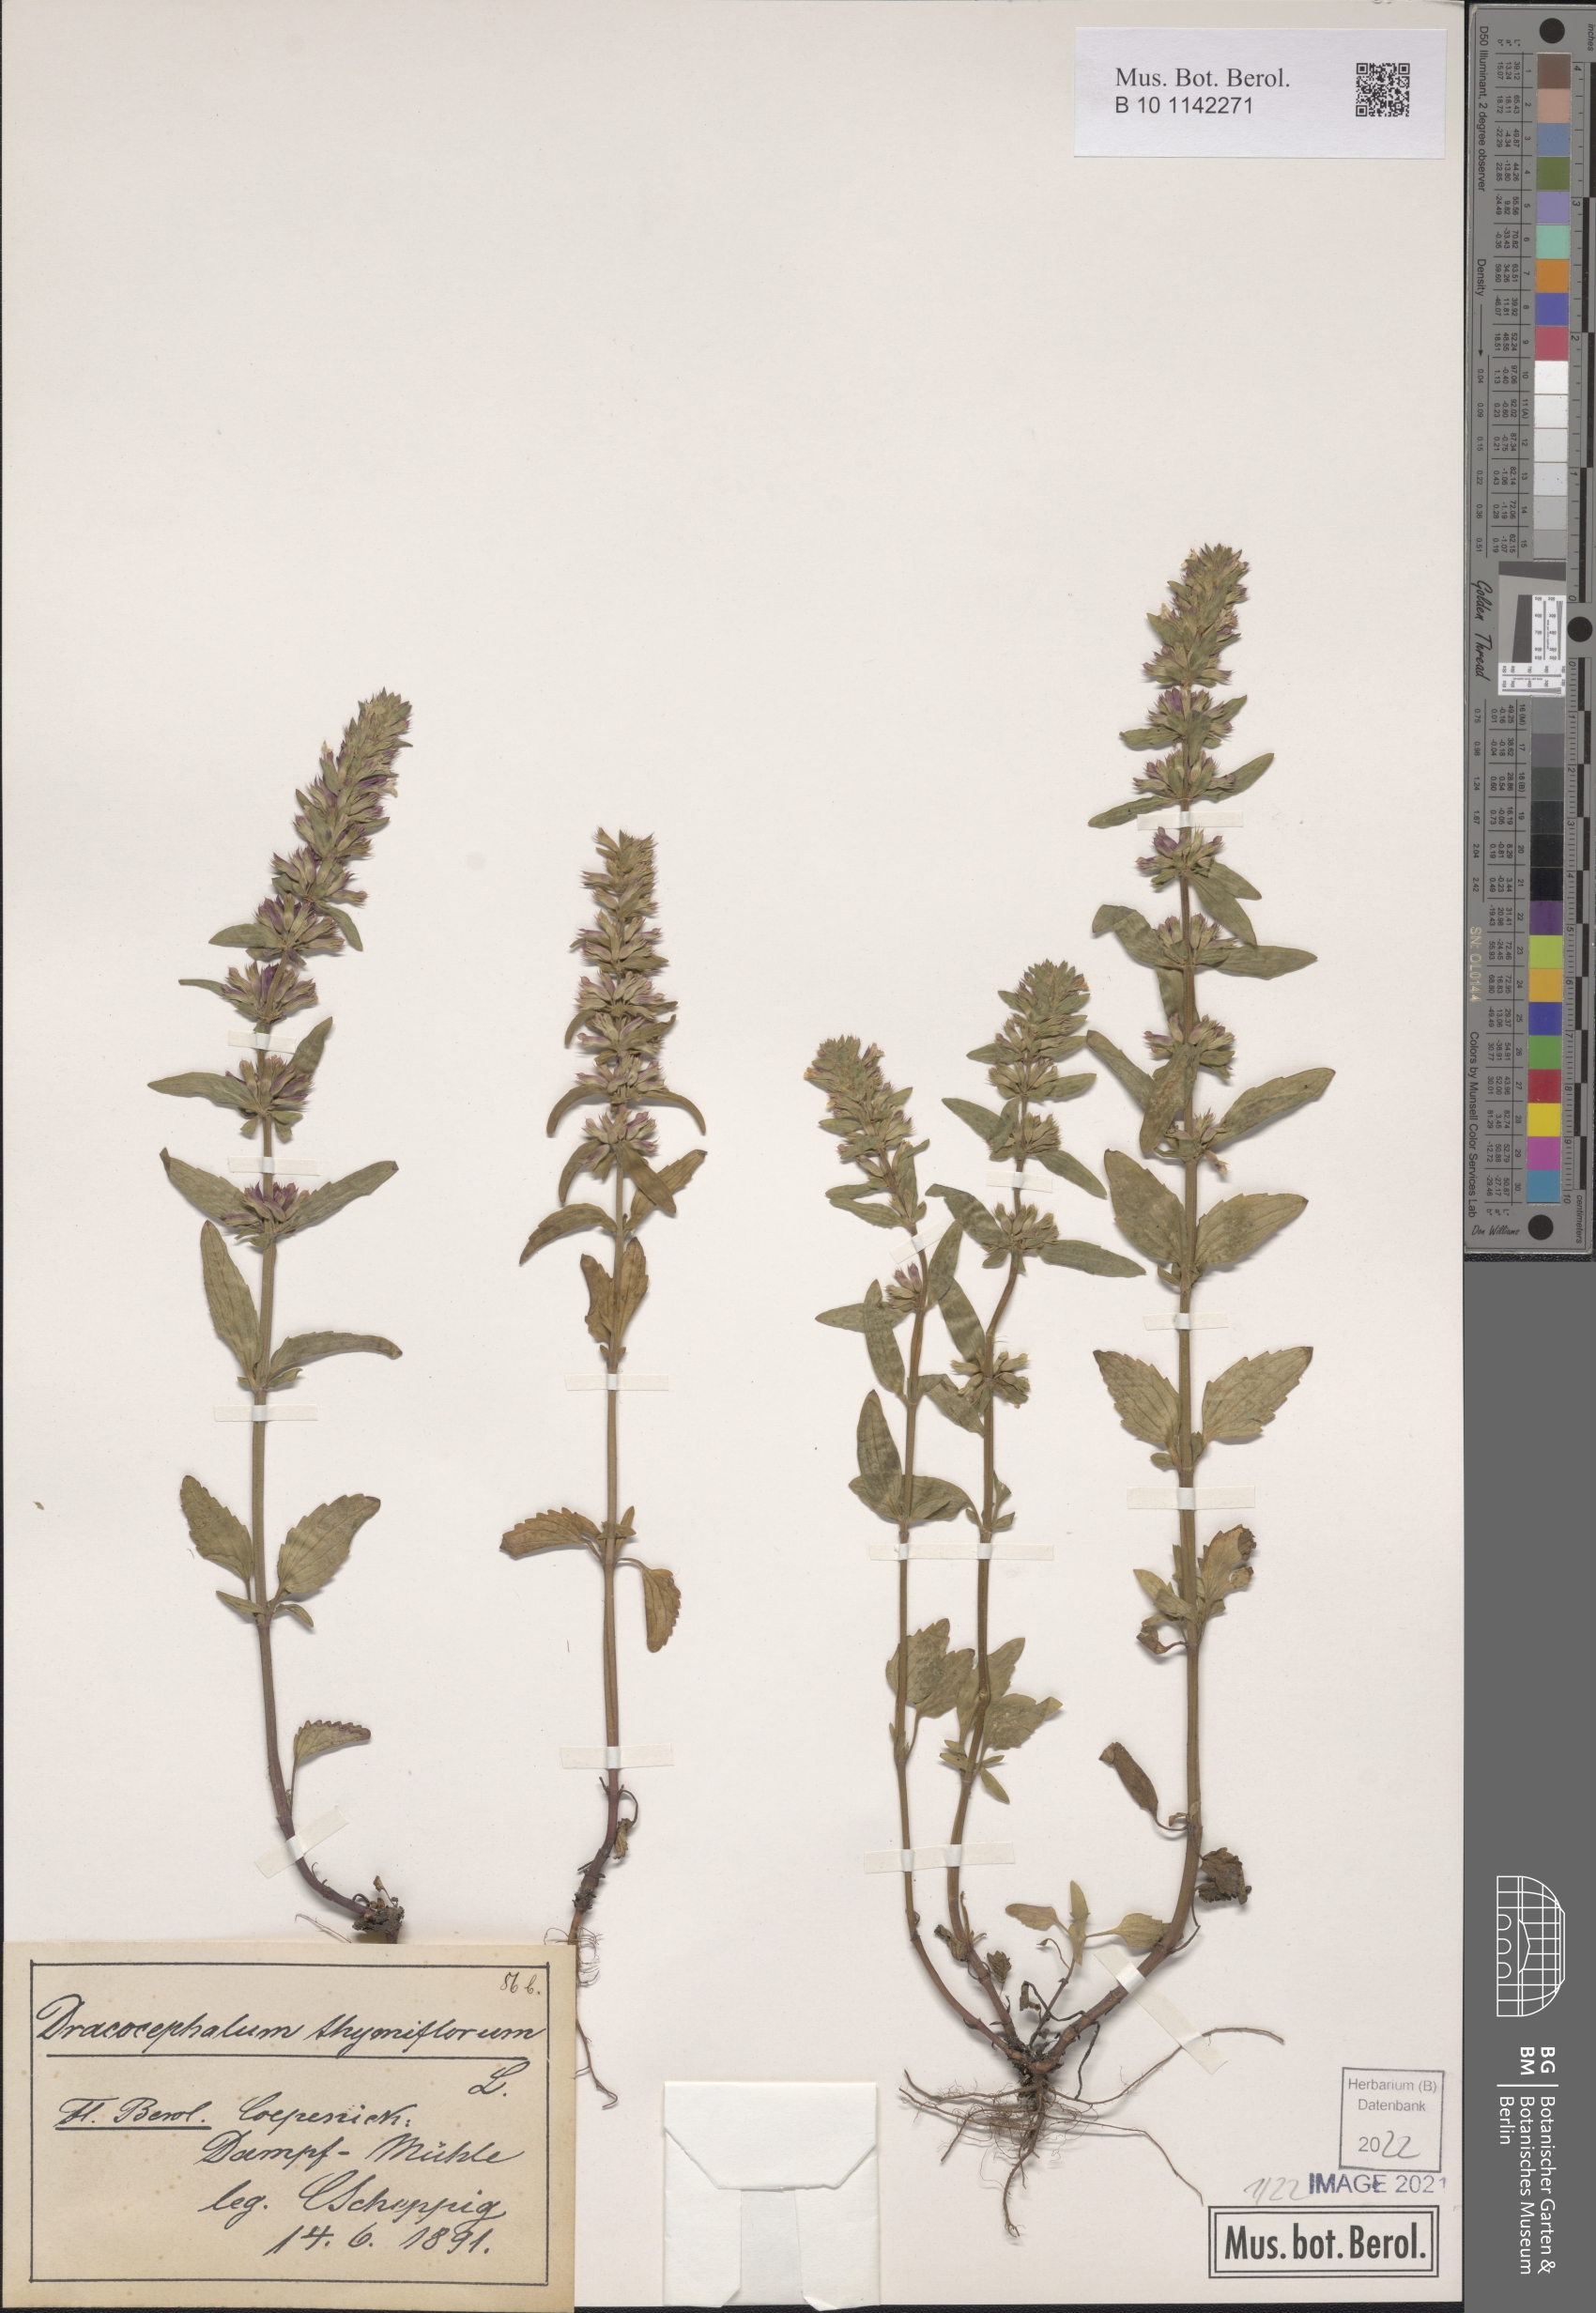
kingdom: Plantae
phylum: Tracheophyta
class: Magnoliopsida
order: Lamiales
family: Lamiaceae
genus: Dracocephalum
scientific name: Dracocephalum thymiflorum
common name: Thymeleaf dragonhead
